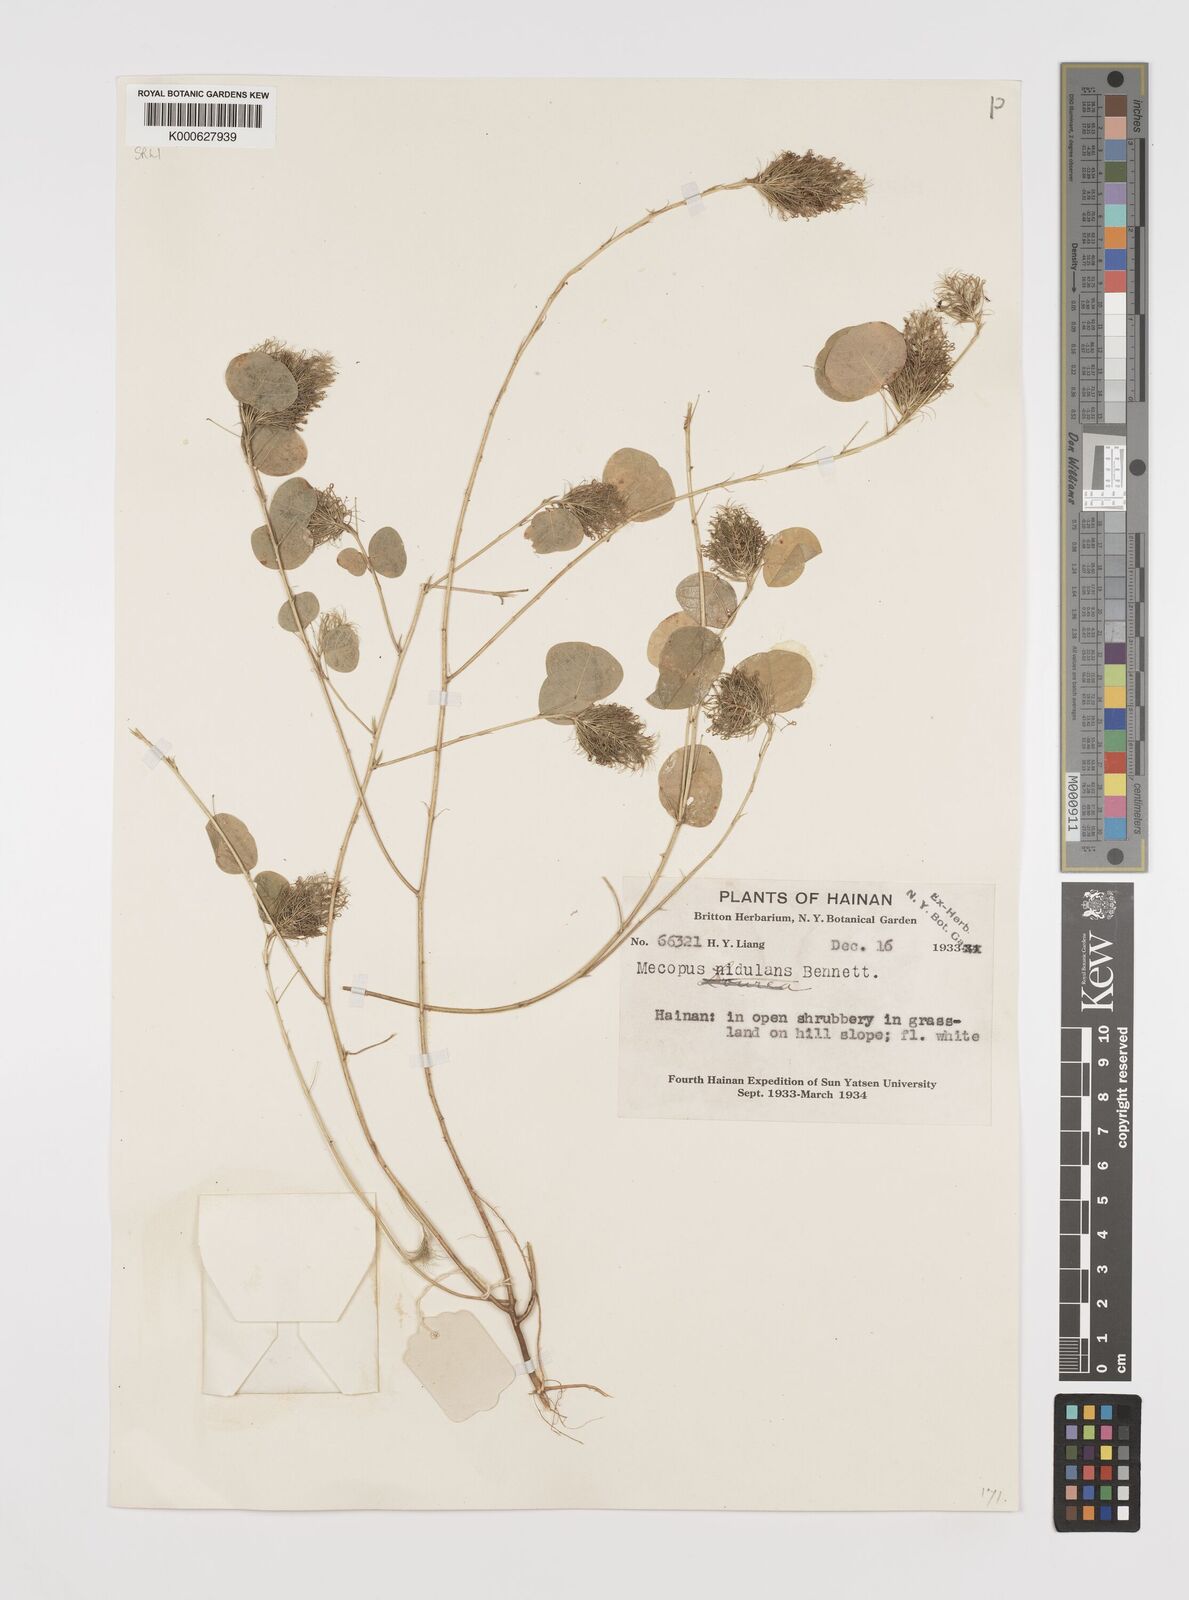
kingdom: Plantae
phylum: Tracheophyta
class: Magnoliopsida
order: Fabales
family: Fabaceae
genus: Mecopus
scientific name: Mecopus nidulans
